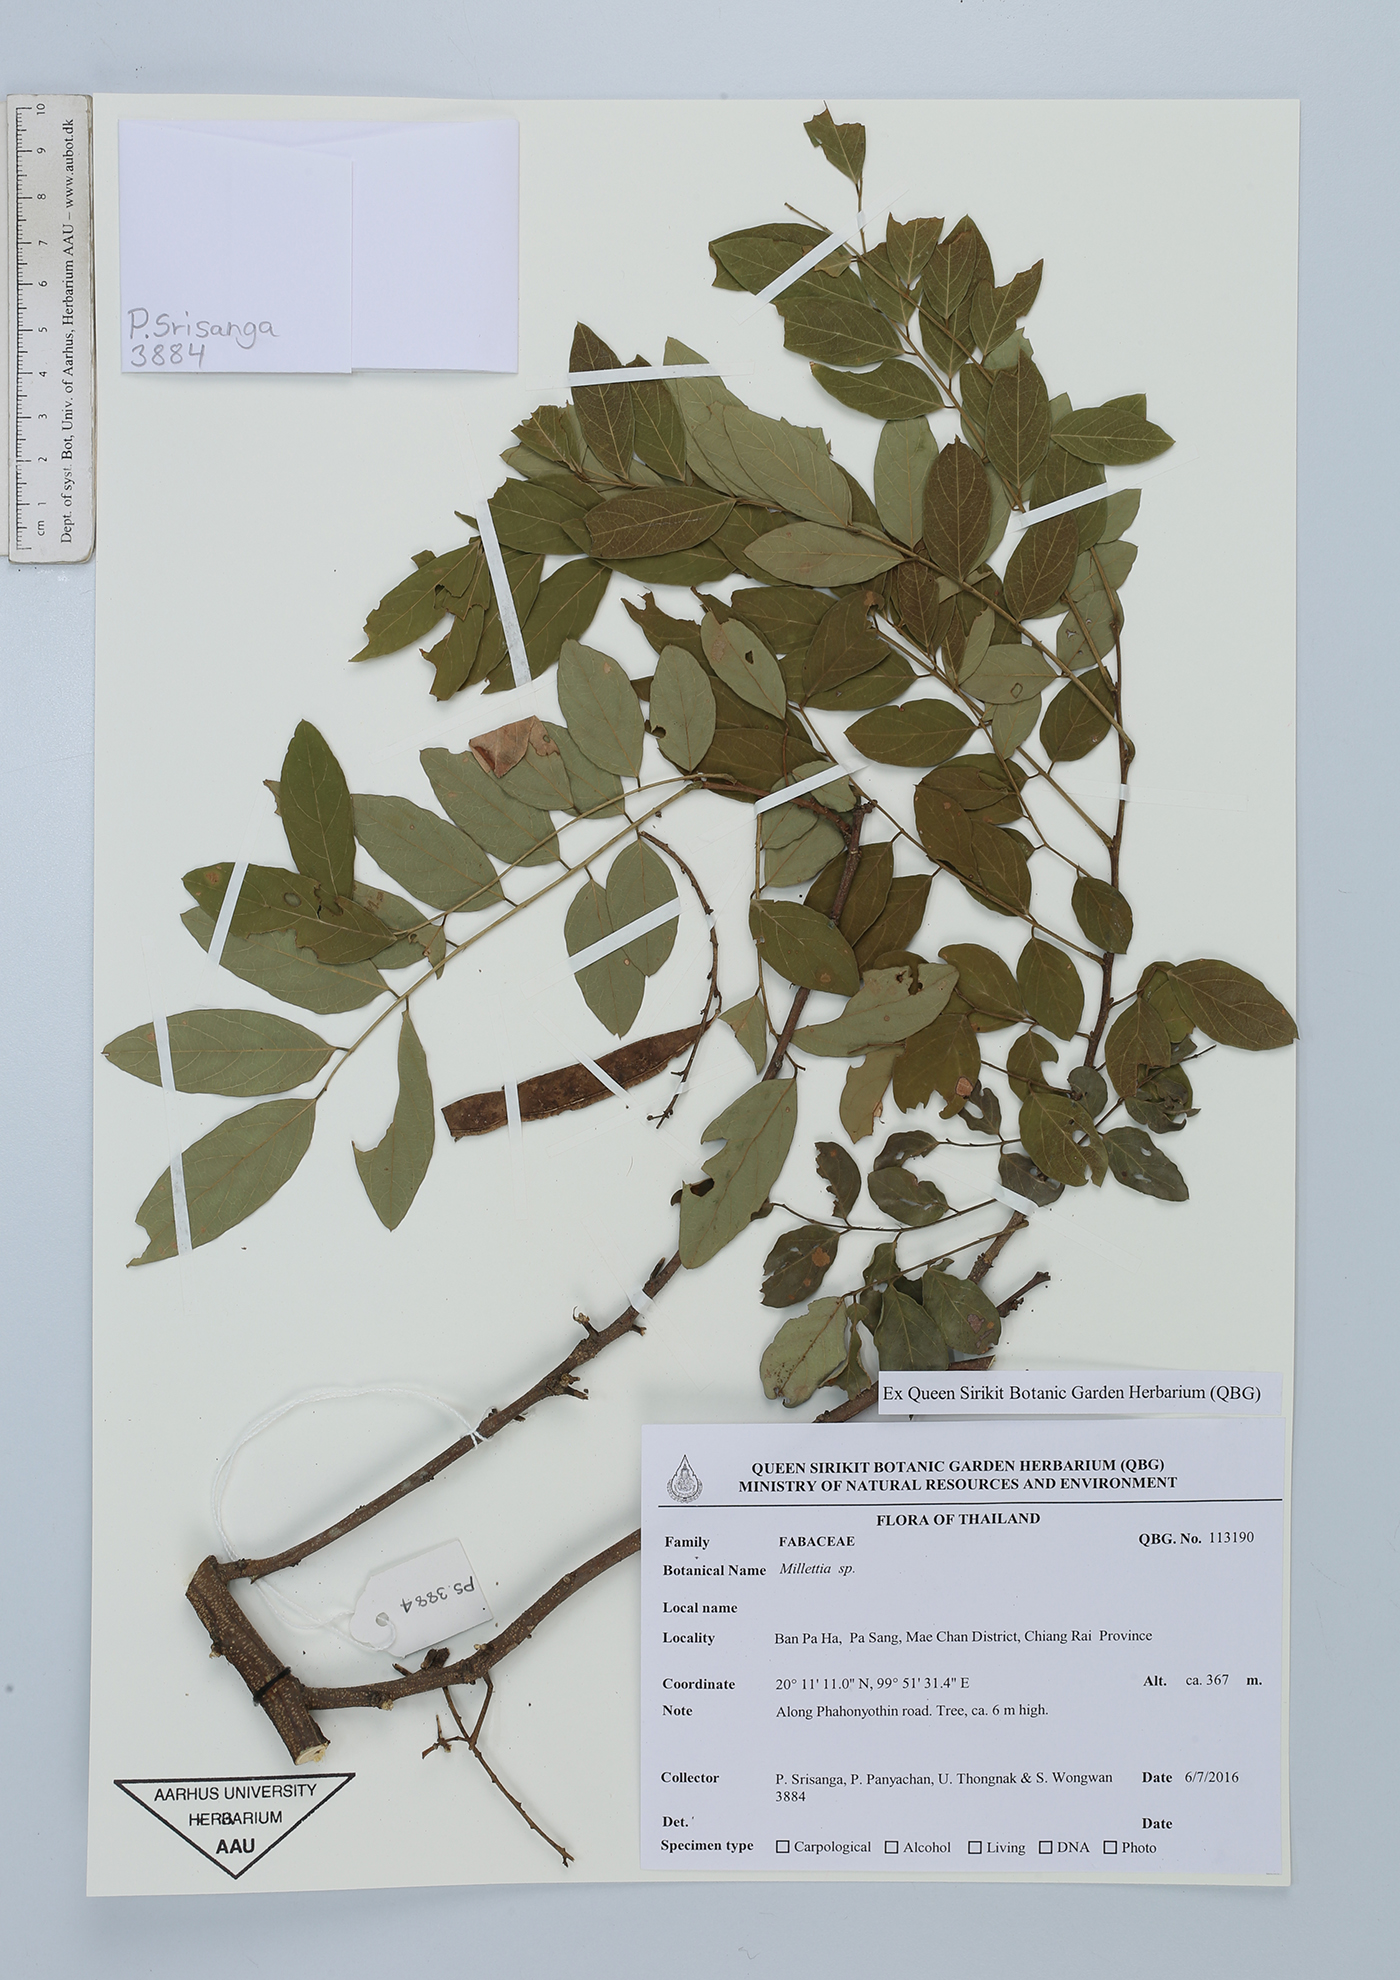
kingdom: Plantae
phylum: Tracheophyta
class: Magnoliopsida
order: Fabales
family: Fabaceae
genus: Millettia
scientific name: Millettia
